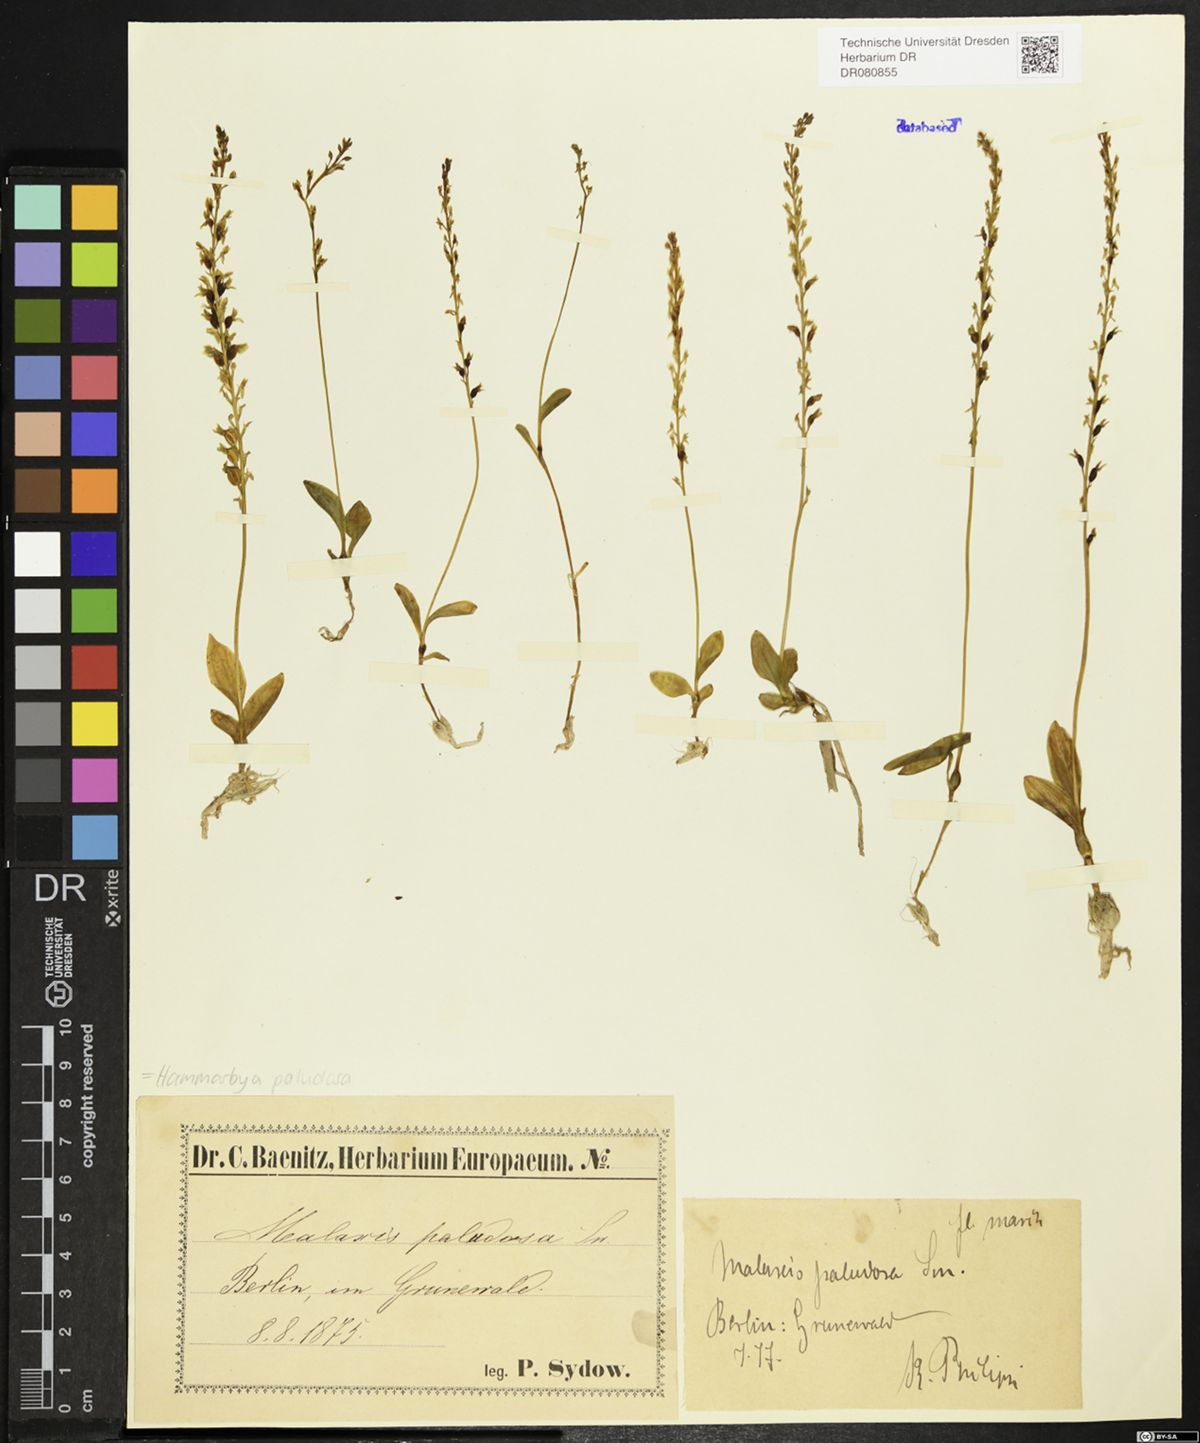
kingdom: Plantae
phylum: Tracheophyta
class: Liliopsida
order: Asparagales
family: Orchidaceae
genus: Hammarbya
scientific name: Hammarbya paludosa
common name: Bog orchid
